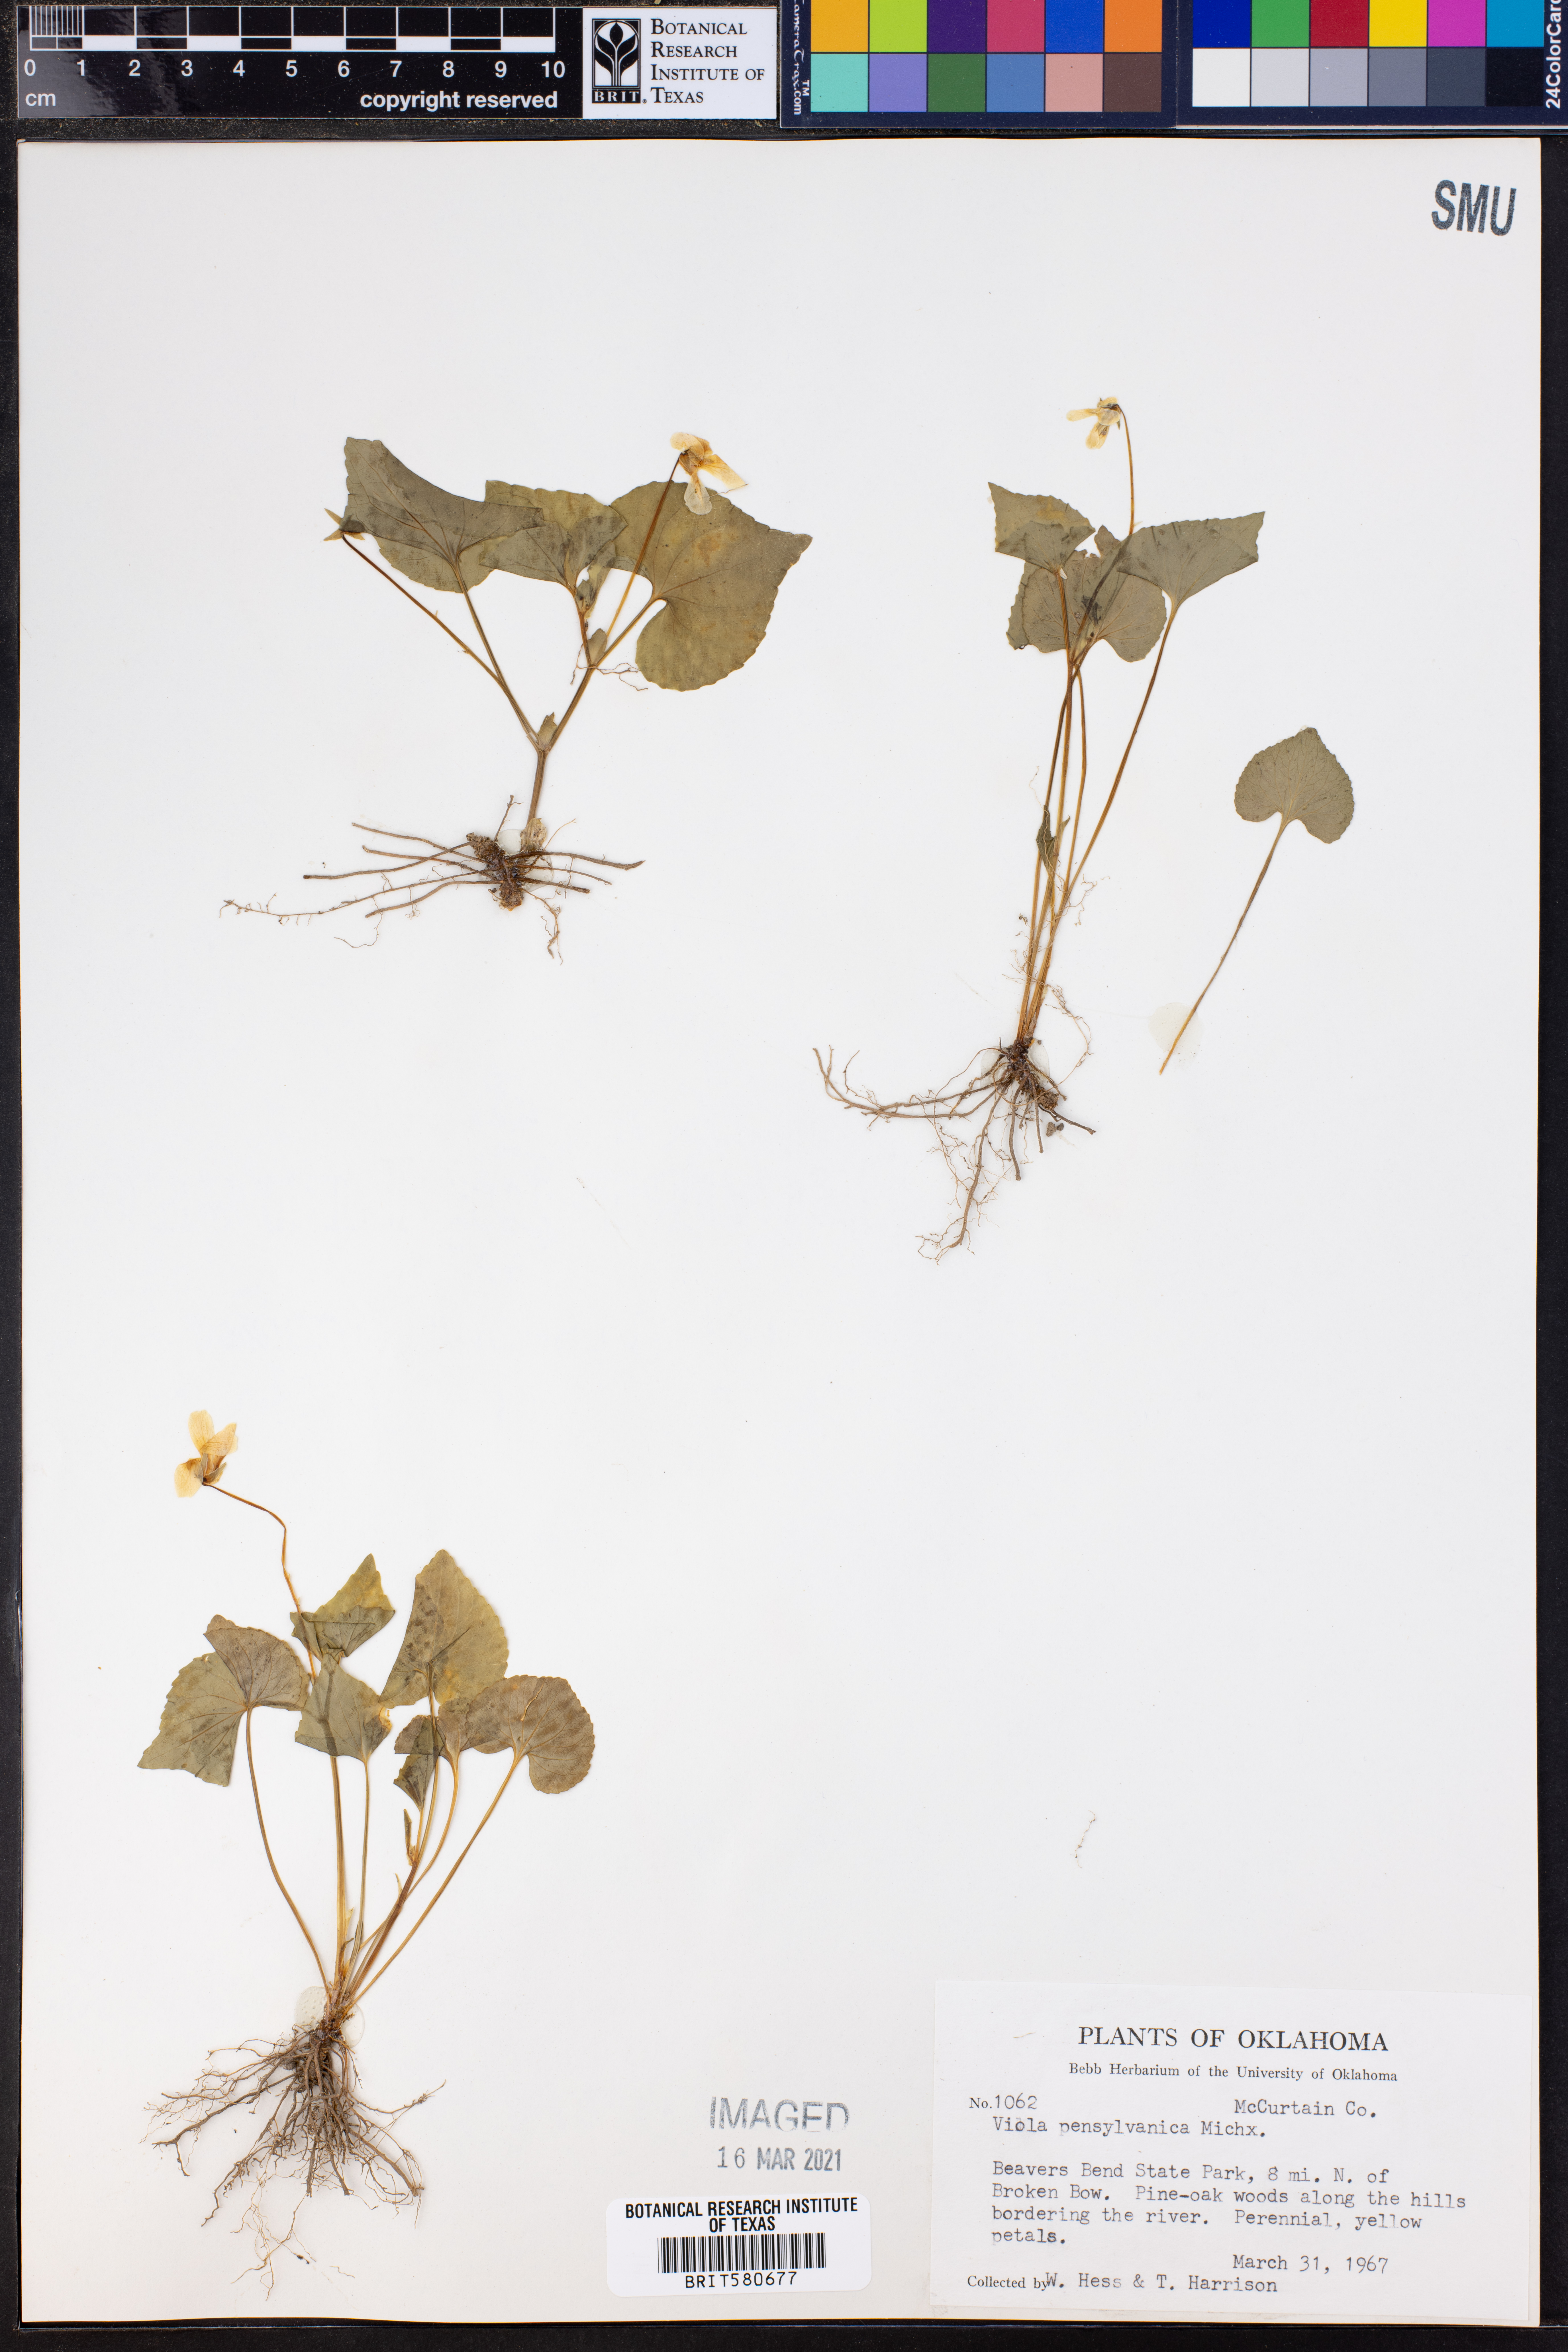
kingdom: Plantae
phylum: Tracheophyta
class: Magnoliopsida
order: Malpighiales
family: Violaceae
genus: Viola
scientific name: Viola pubescens
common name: Yellow forest violet
